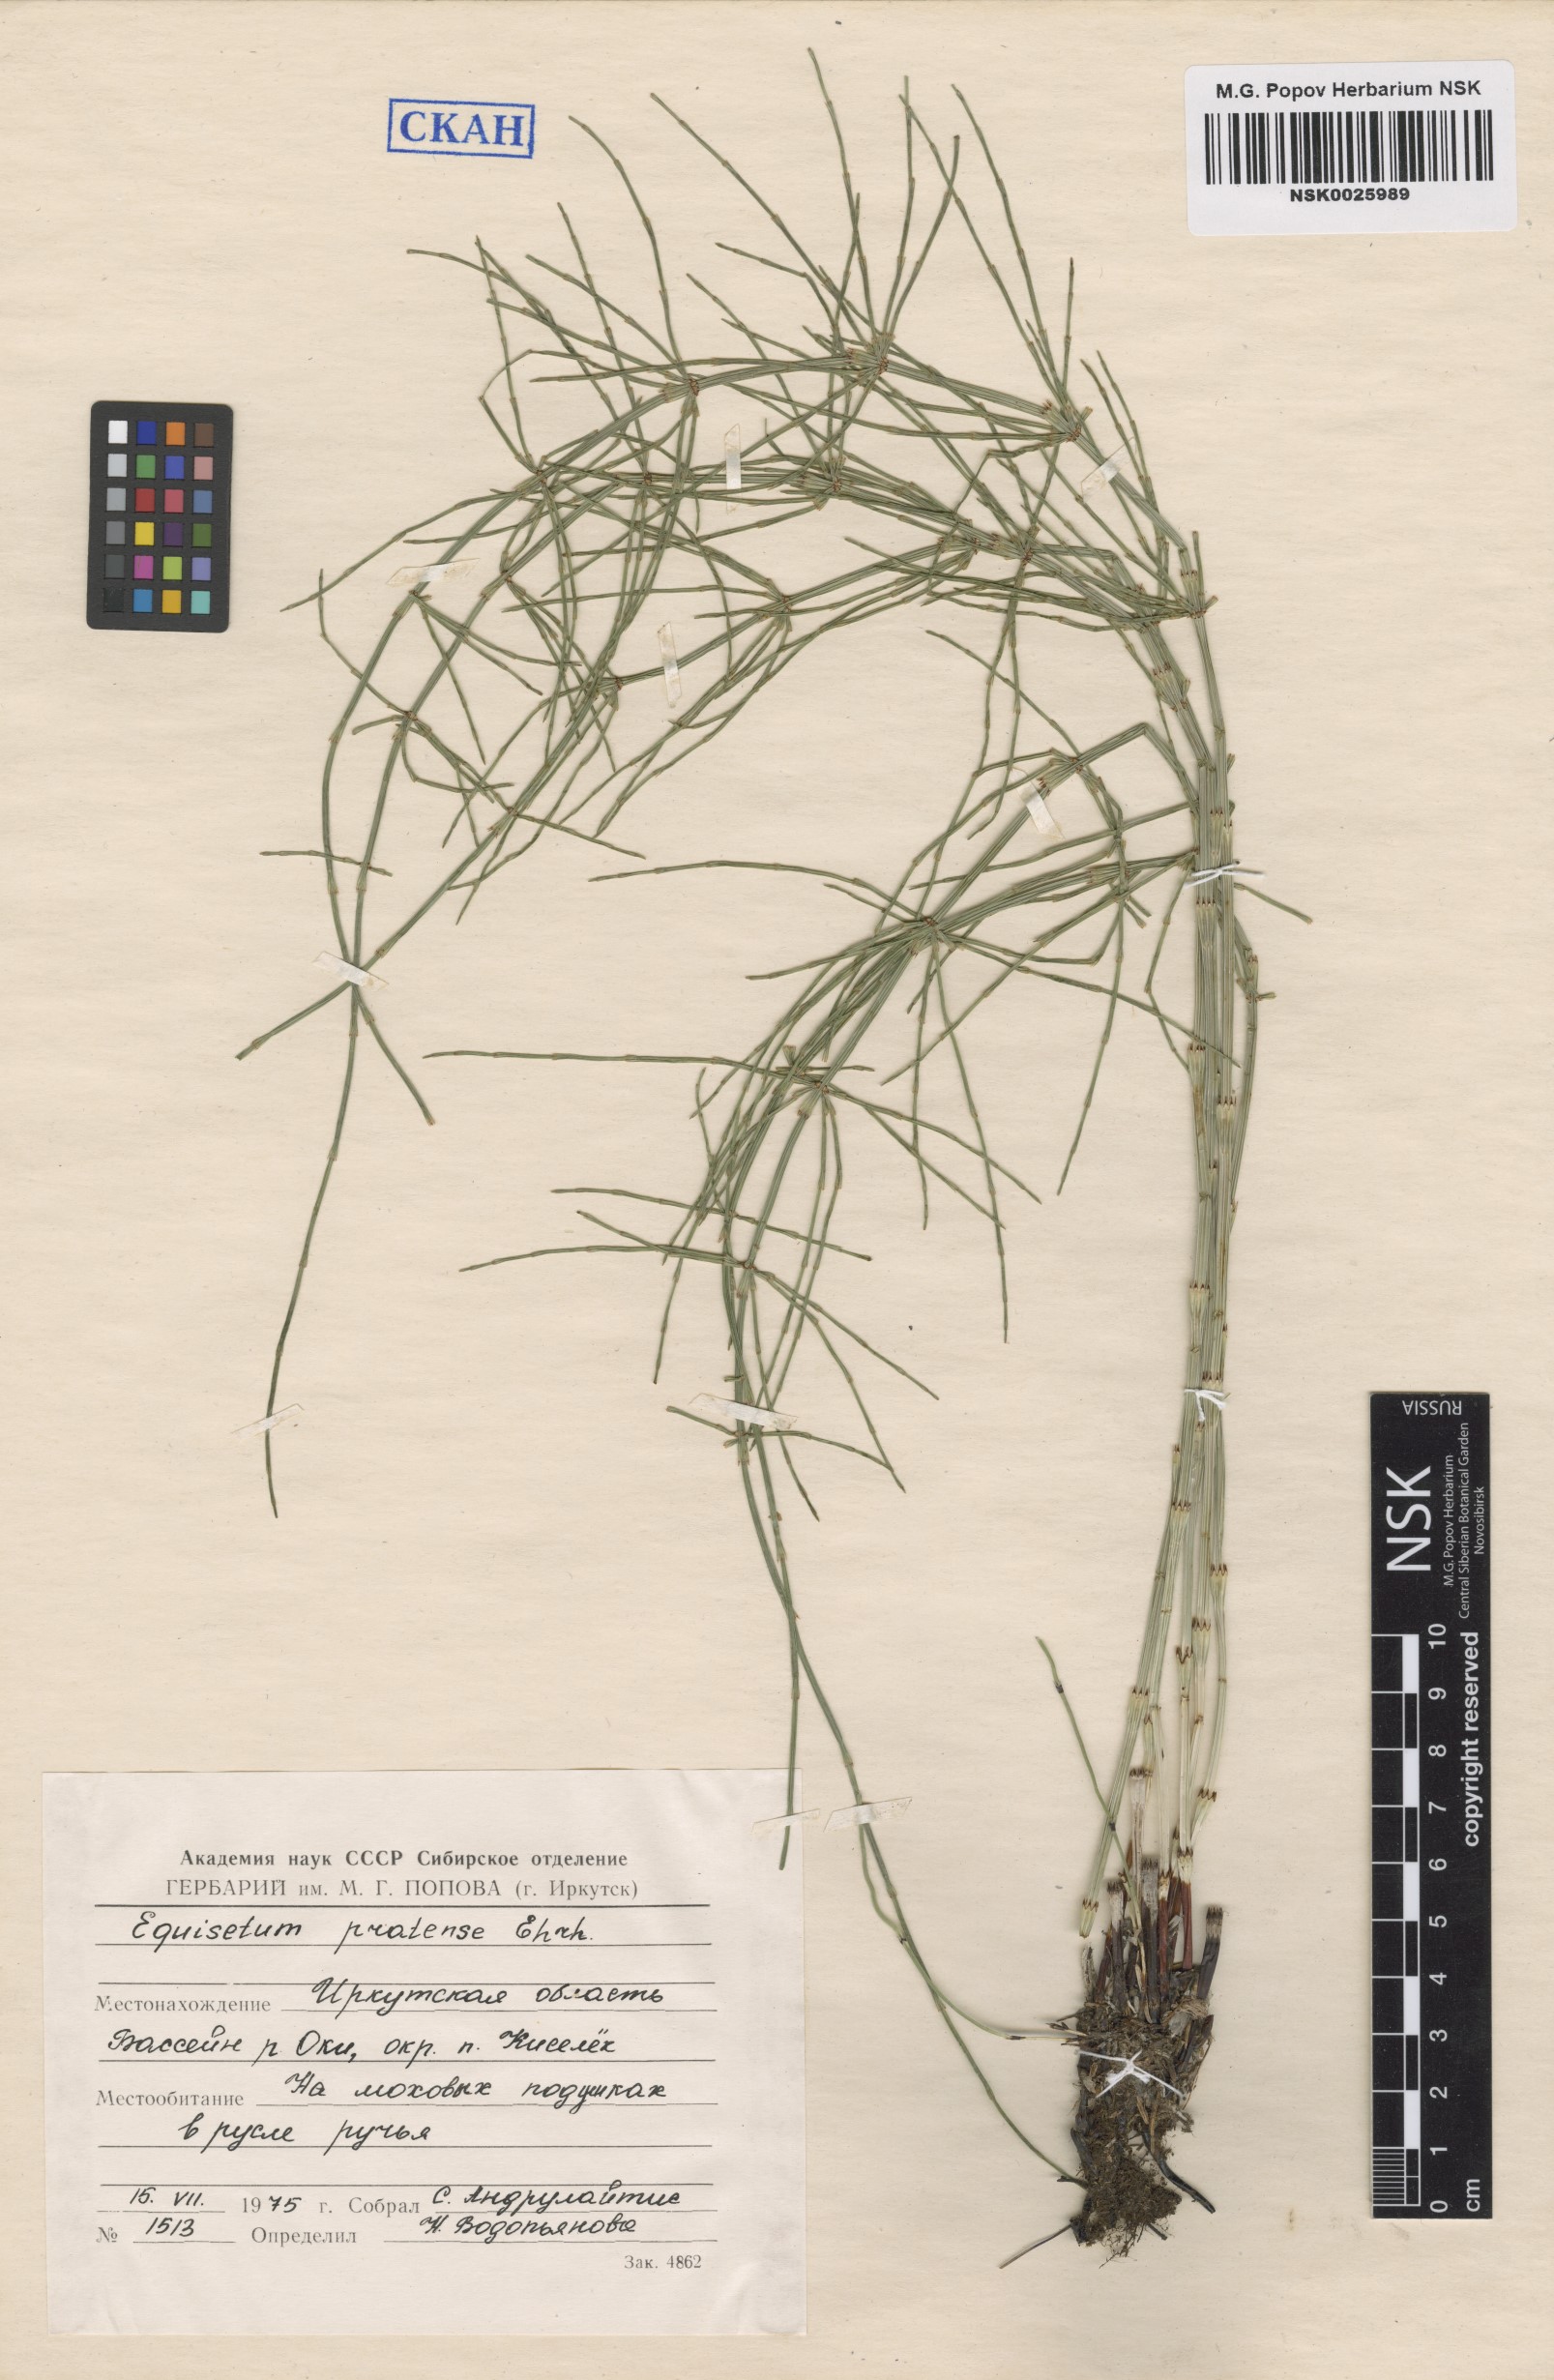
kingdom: Plantae
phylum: Tracheophyta
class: Polypodiopsida
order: Equisetales
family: Equisetaceae
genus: Equisetum
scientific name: Equisetum pratense
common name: Meadow horsetail
